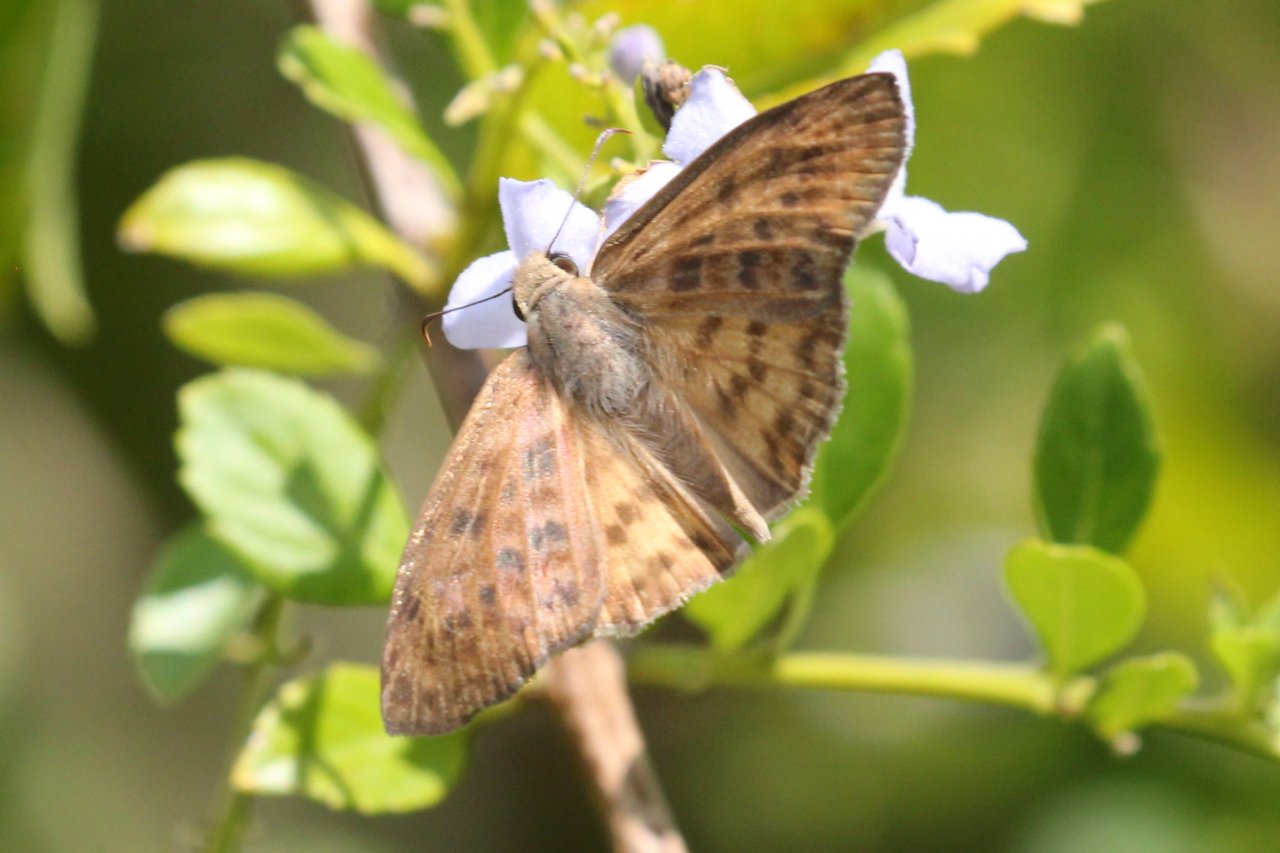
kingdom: Animalia
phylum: Arthropoda
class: Insecta
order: Lepidoptera
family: Hesperiidae
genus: Timochares
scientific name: Timochares ruptifasciata
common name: Brown-banded Skipper
